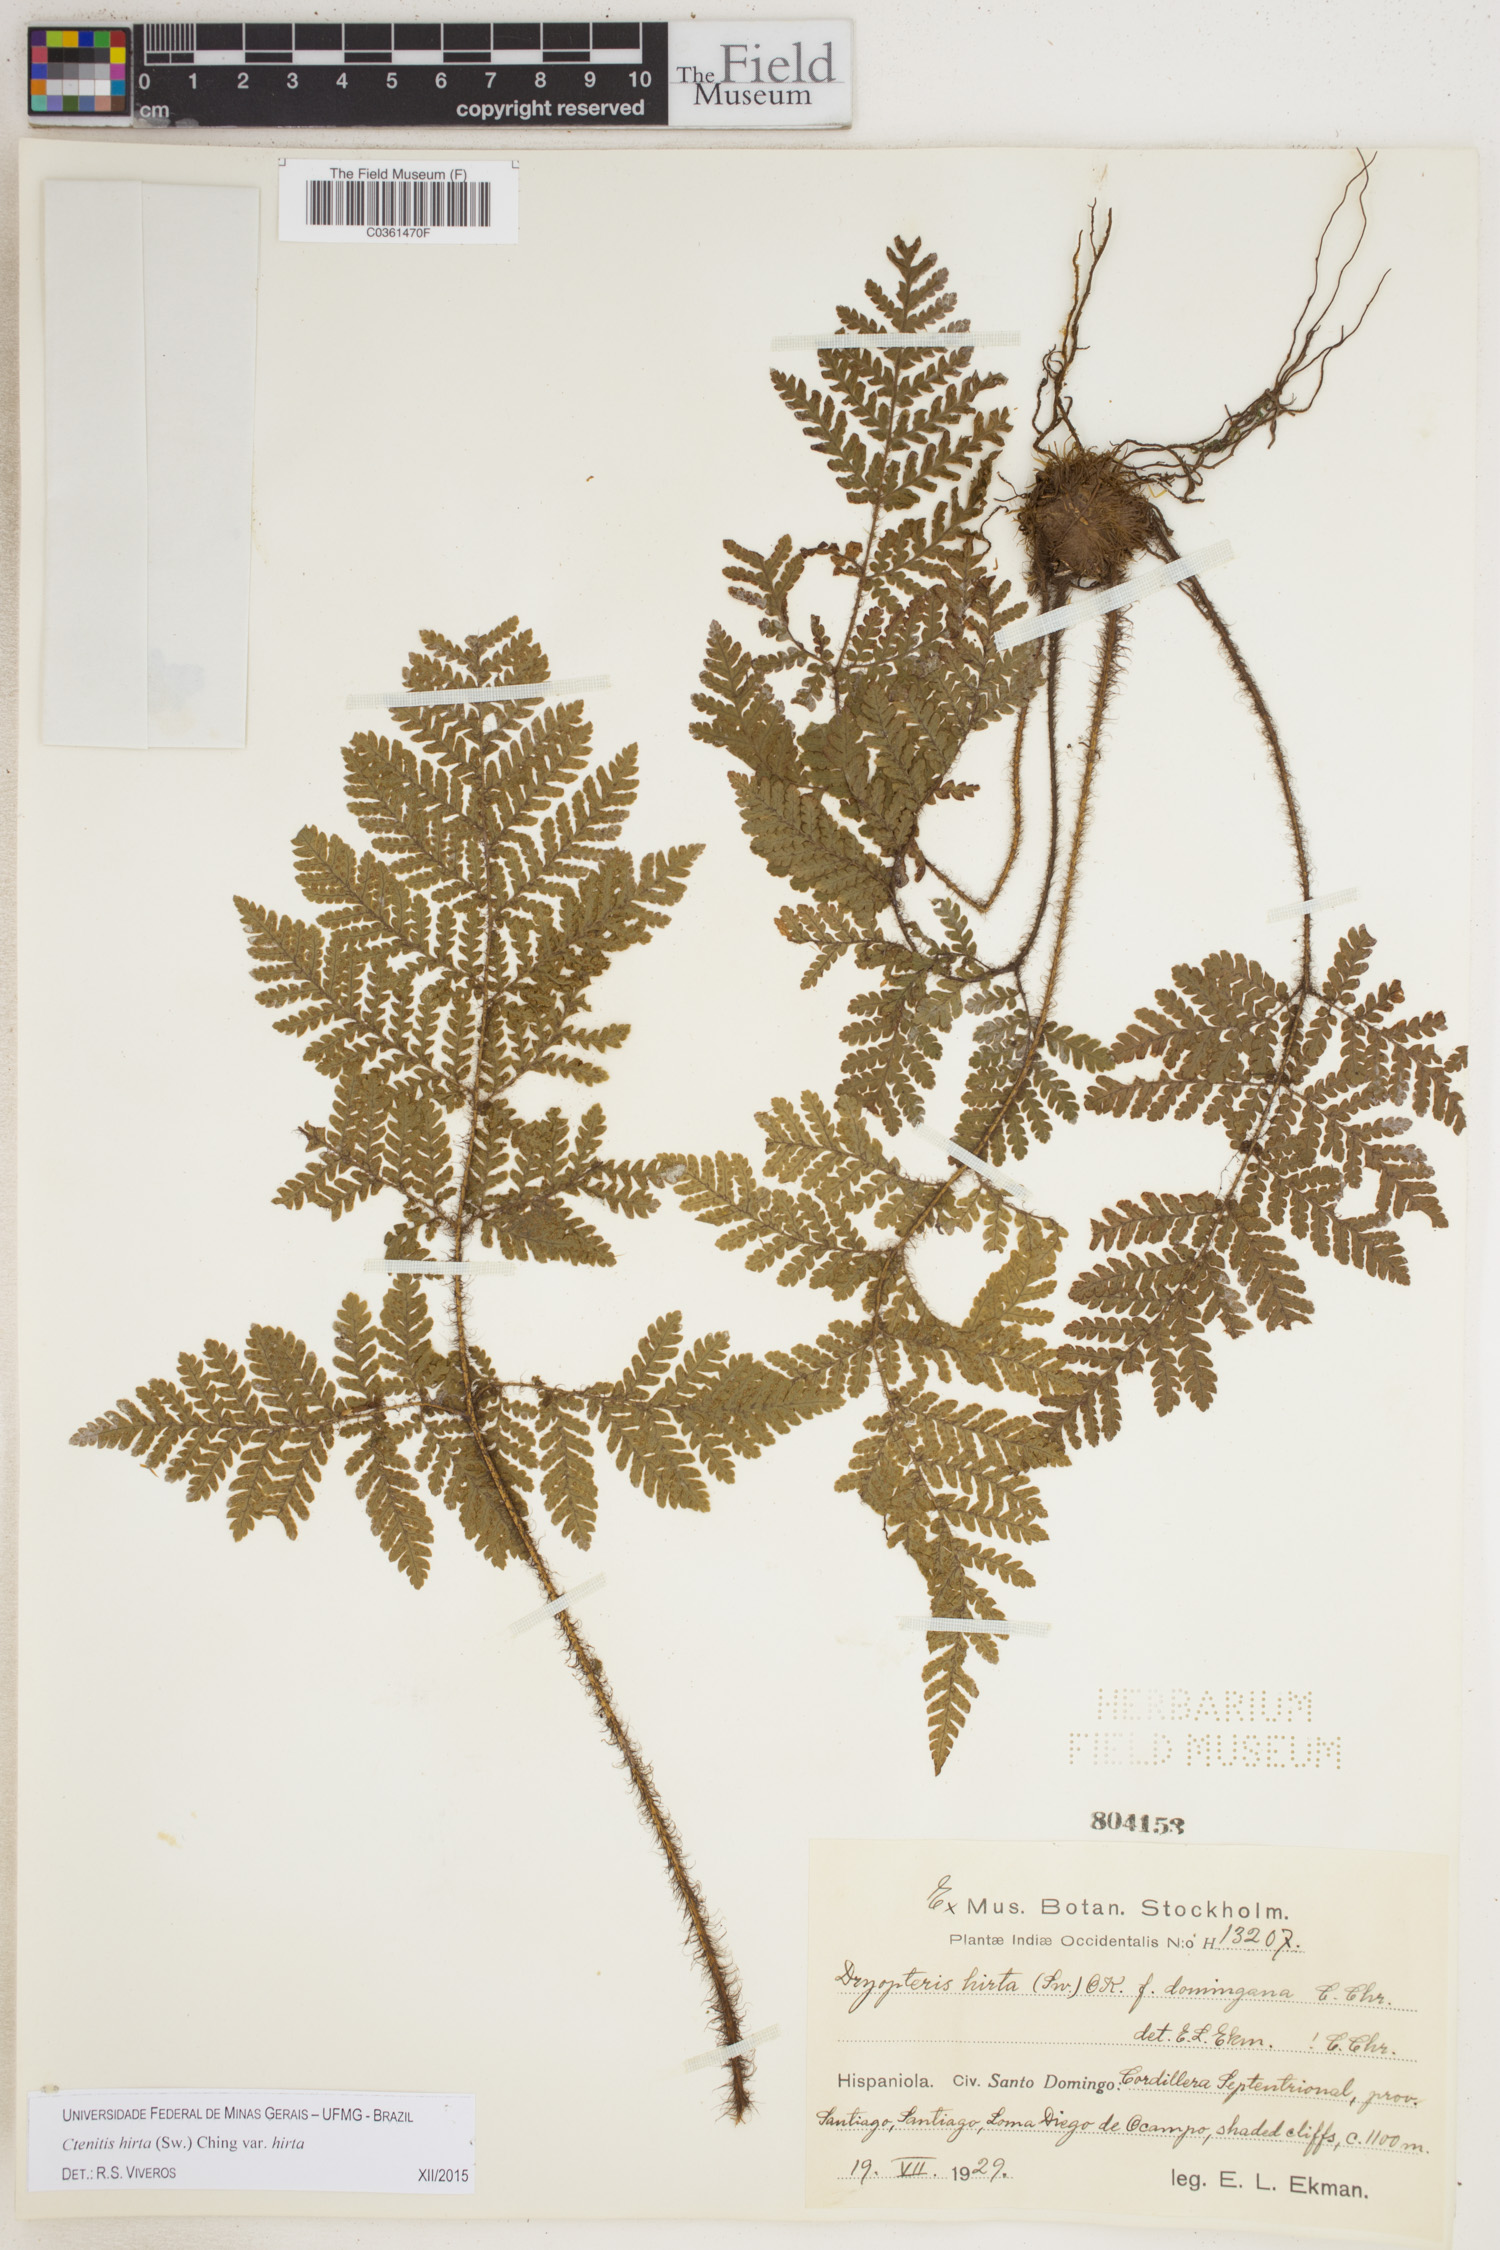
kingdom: Plantae
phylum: Tracheophyta
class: Polypodiopsida
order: Polypodiales
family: Dryopteridaceae
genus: Ctenitis
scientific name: Ctenitis hirta
